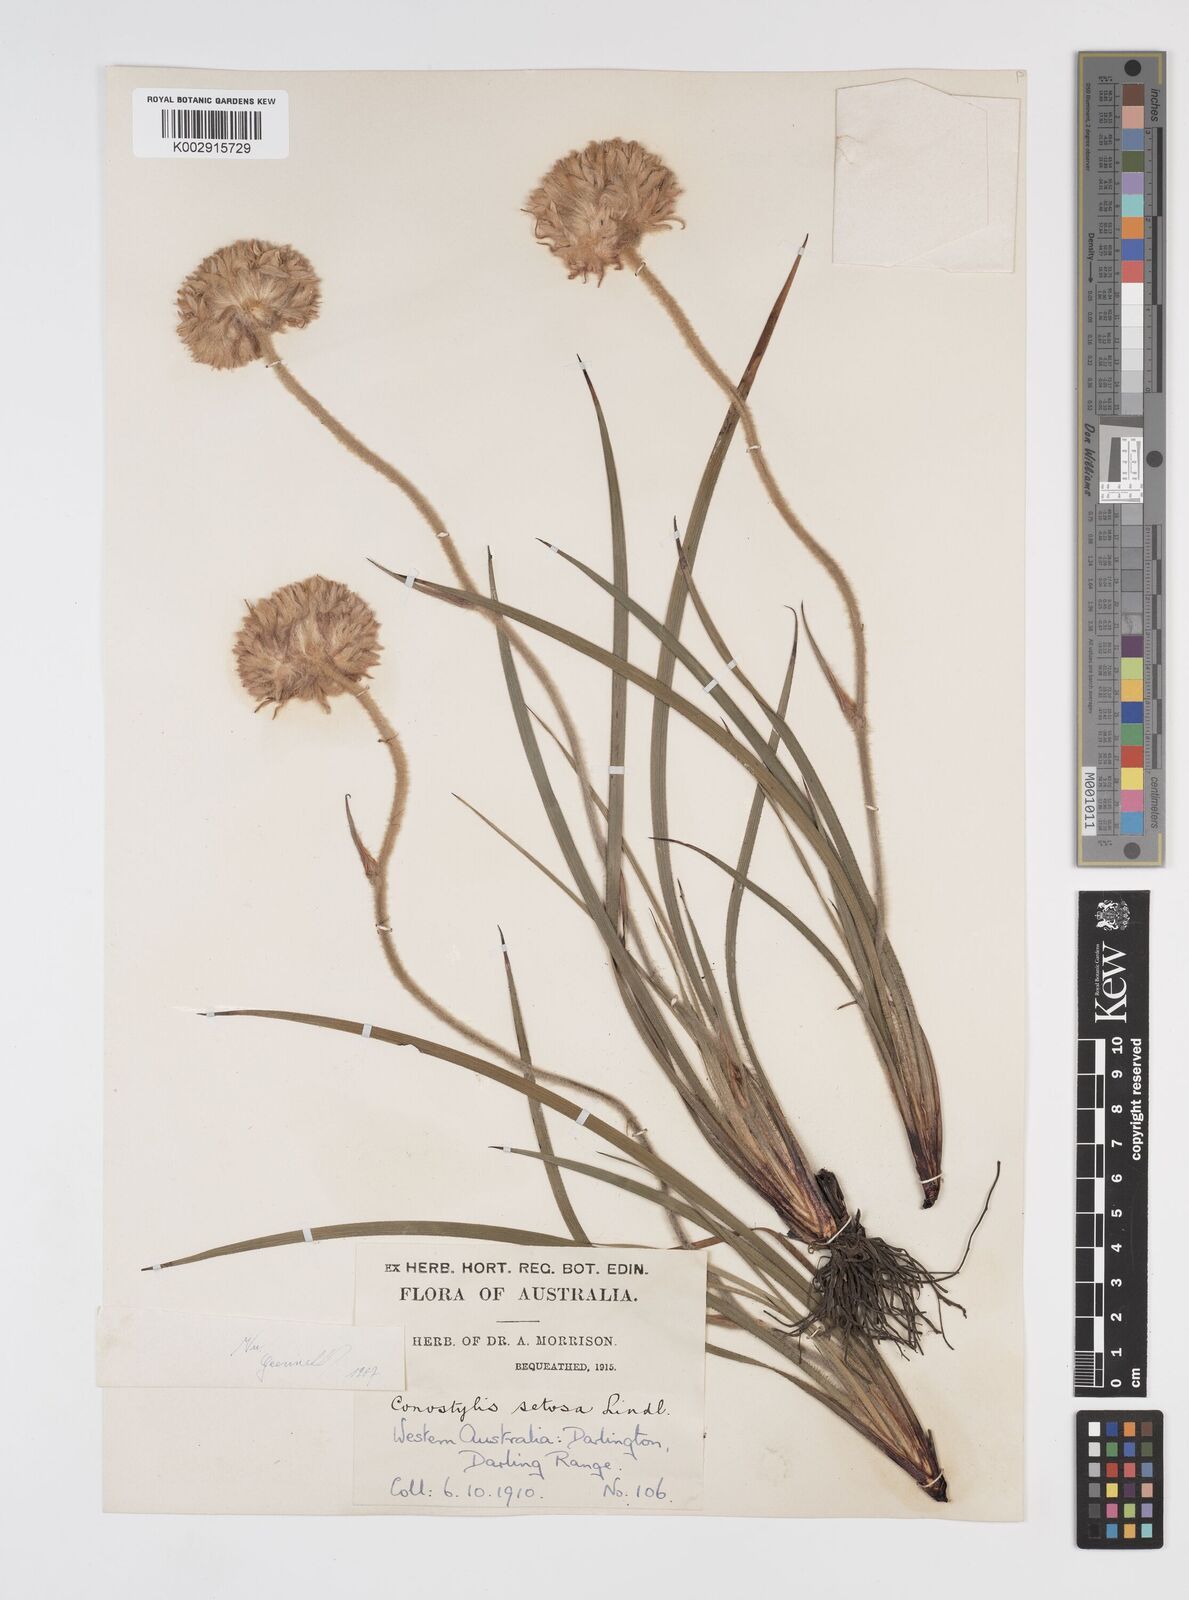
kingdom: Plantae
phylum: Tracheophyta
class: Liliopsida
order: Commelinales
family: Haemodoraceae
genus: Conostylis
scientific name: Conostylis setosa
